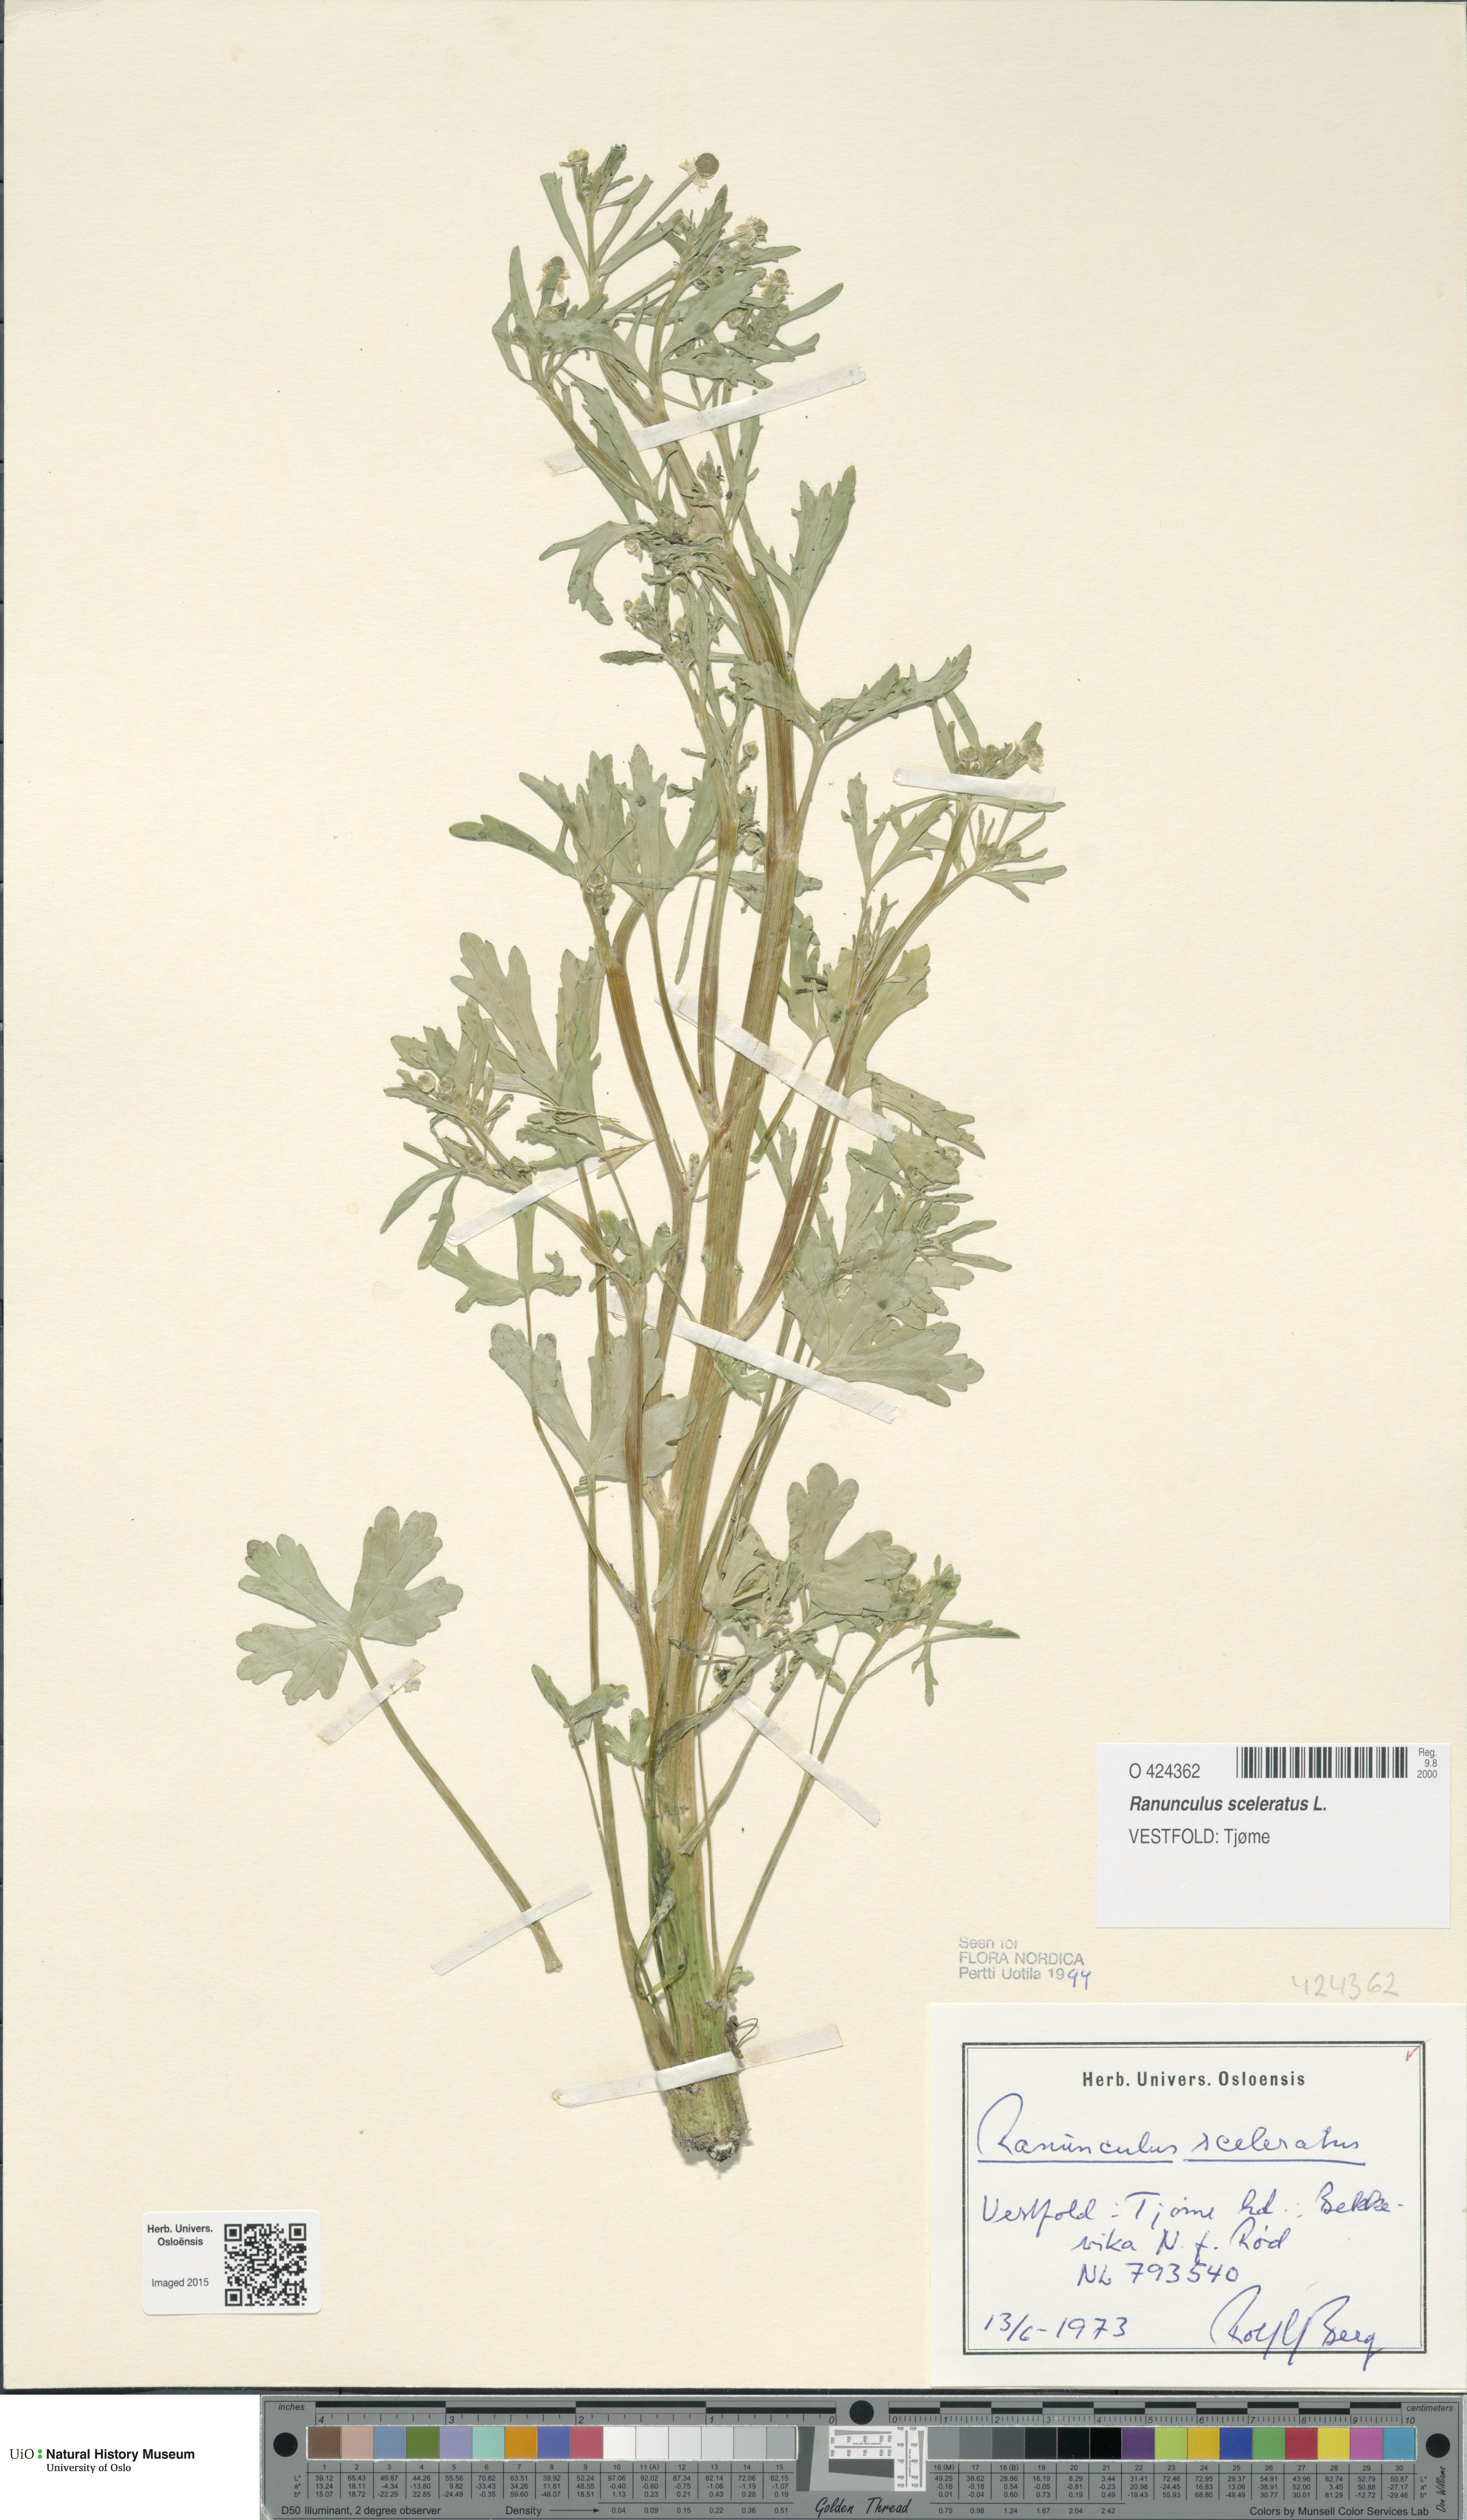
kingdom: Plantae
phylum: Tracheophyta
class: Magnoliopsida
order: Ranunculales
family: Ranunculaceae
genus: Ranunculus
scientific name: Ranunculus sceleratus
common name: Celery-leaved buttercup
